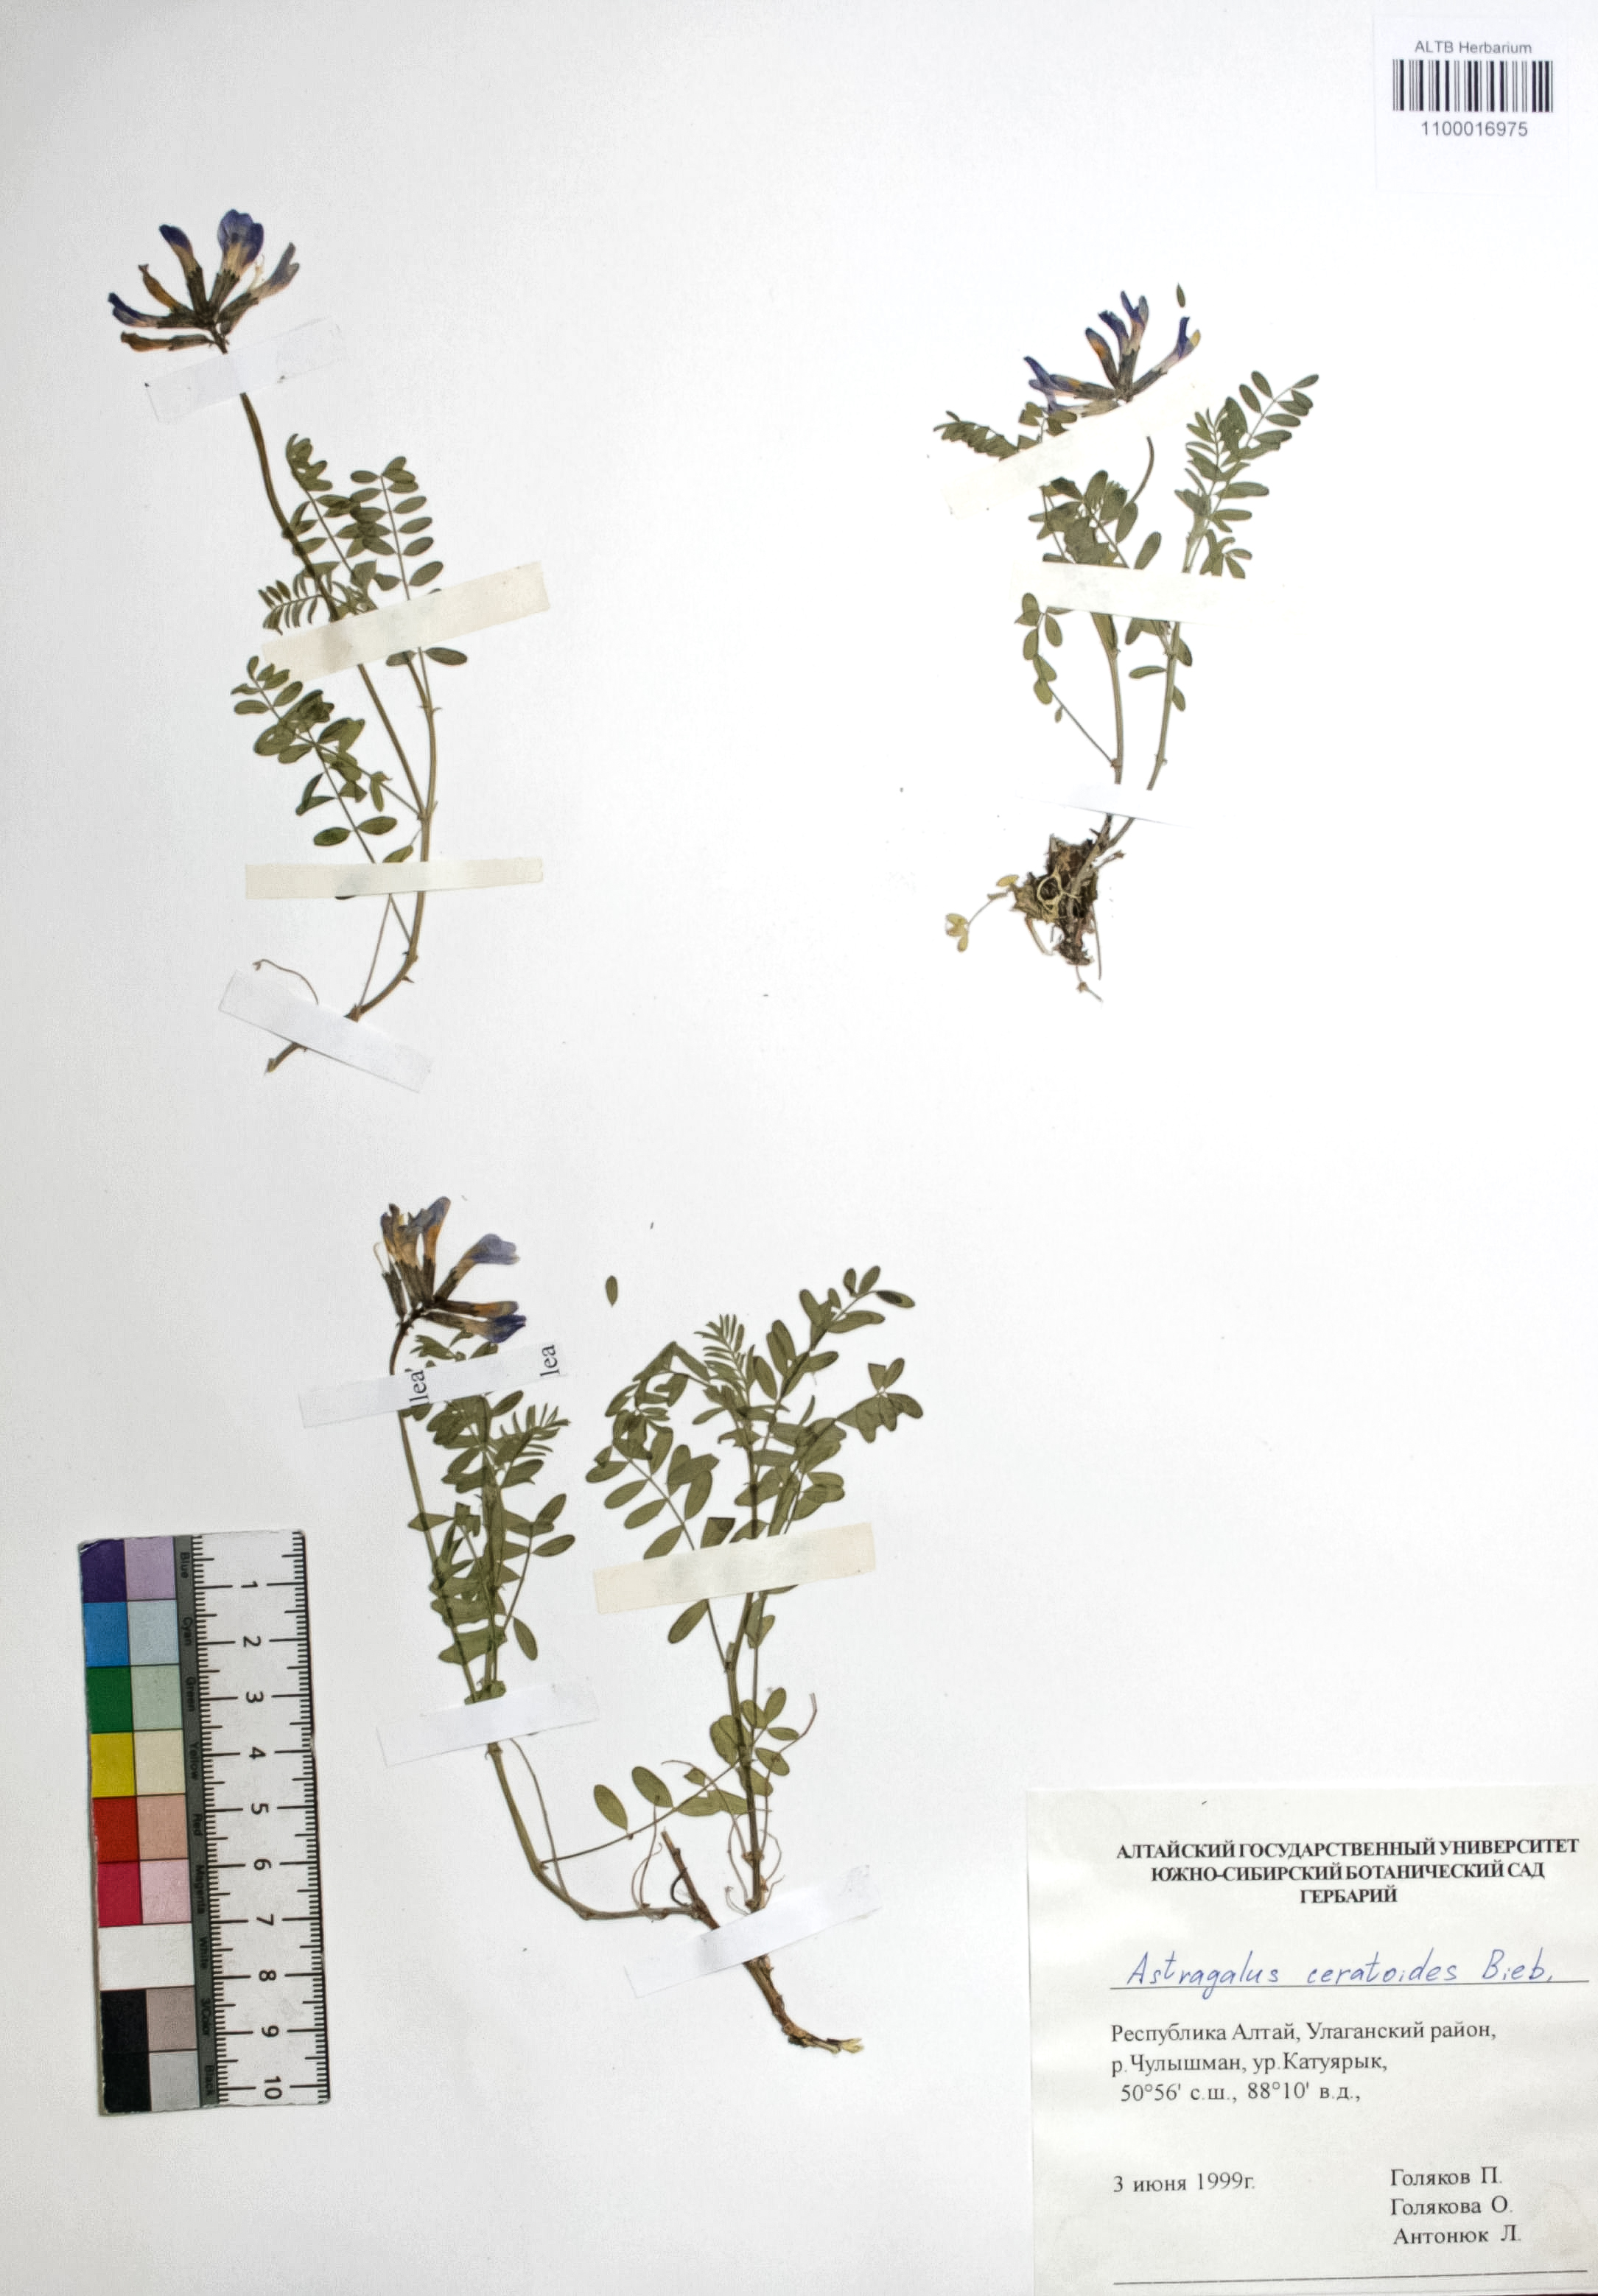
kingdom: Plantae
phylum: Tracheophyta
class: Magnoliopsida
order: Fabales
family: Fabaceae
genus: Astragalus
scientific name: Astragalus ceratoides
